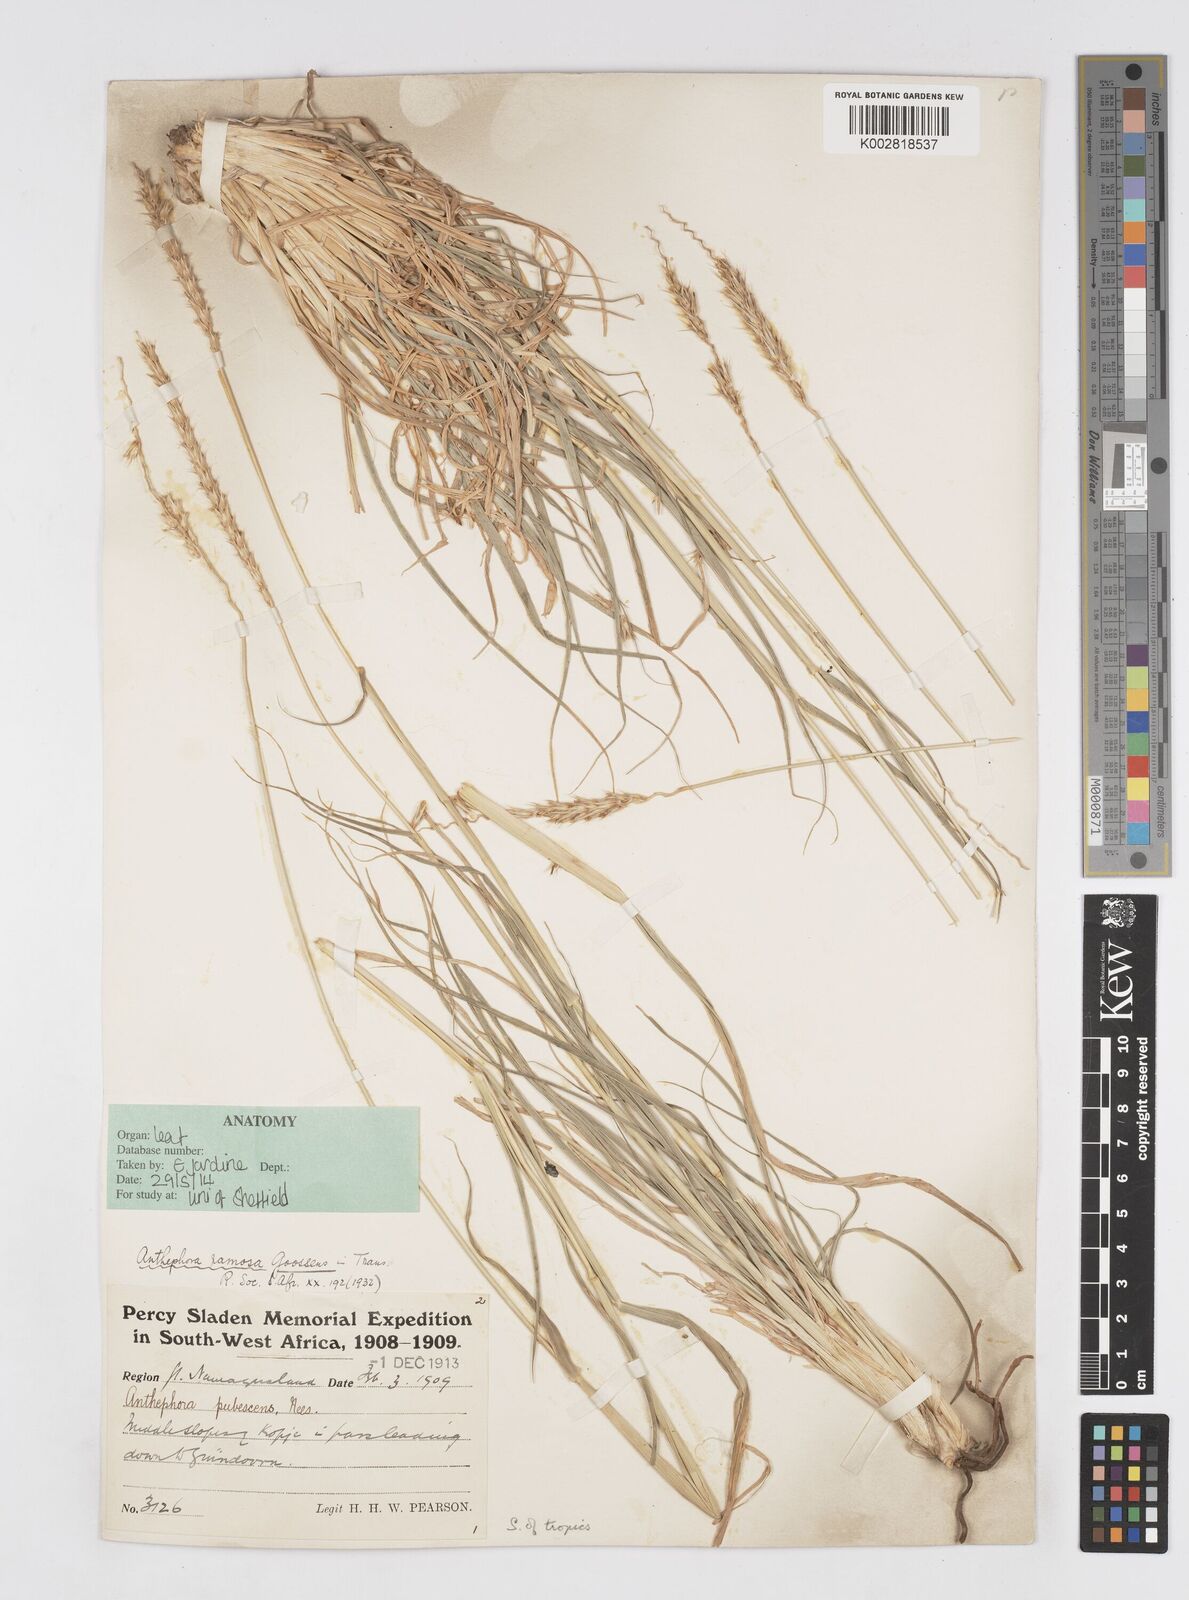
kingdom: Plantae
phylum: Tracheophyta
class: Liliopsida
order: Poales
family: Poaceae
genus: Anthephora
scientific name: Anthephora pubescens
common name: Wool grass
